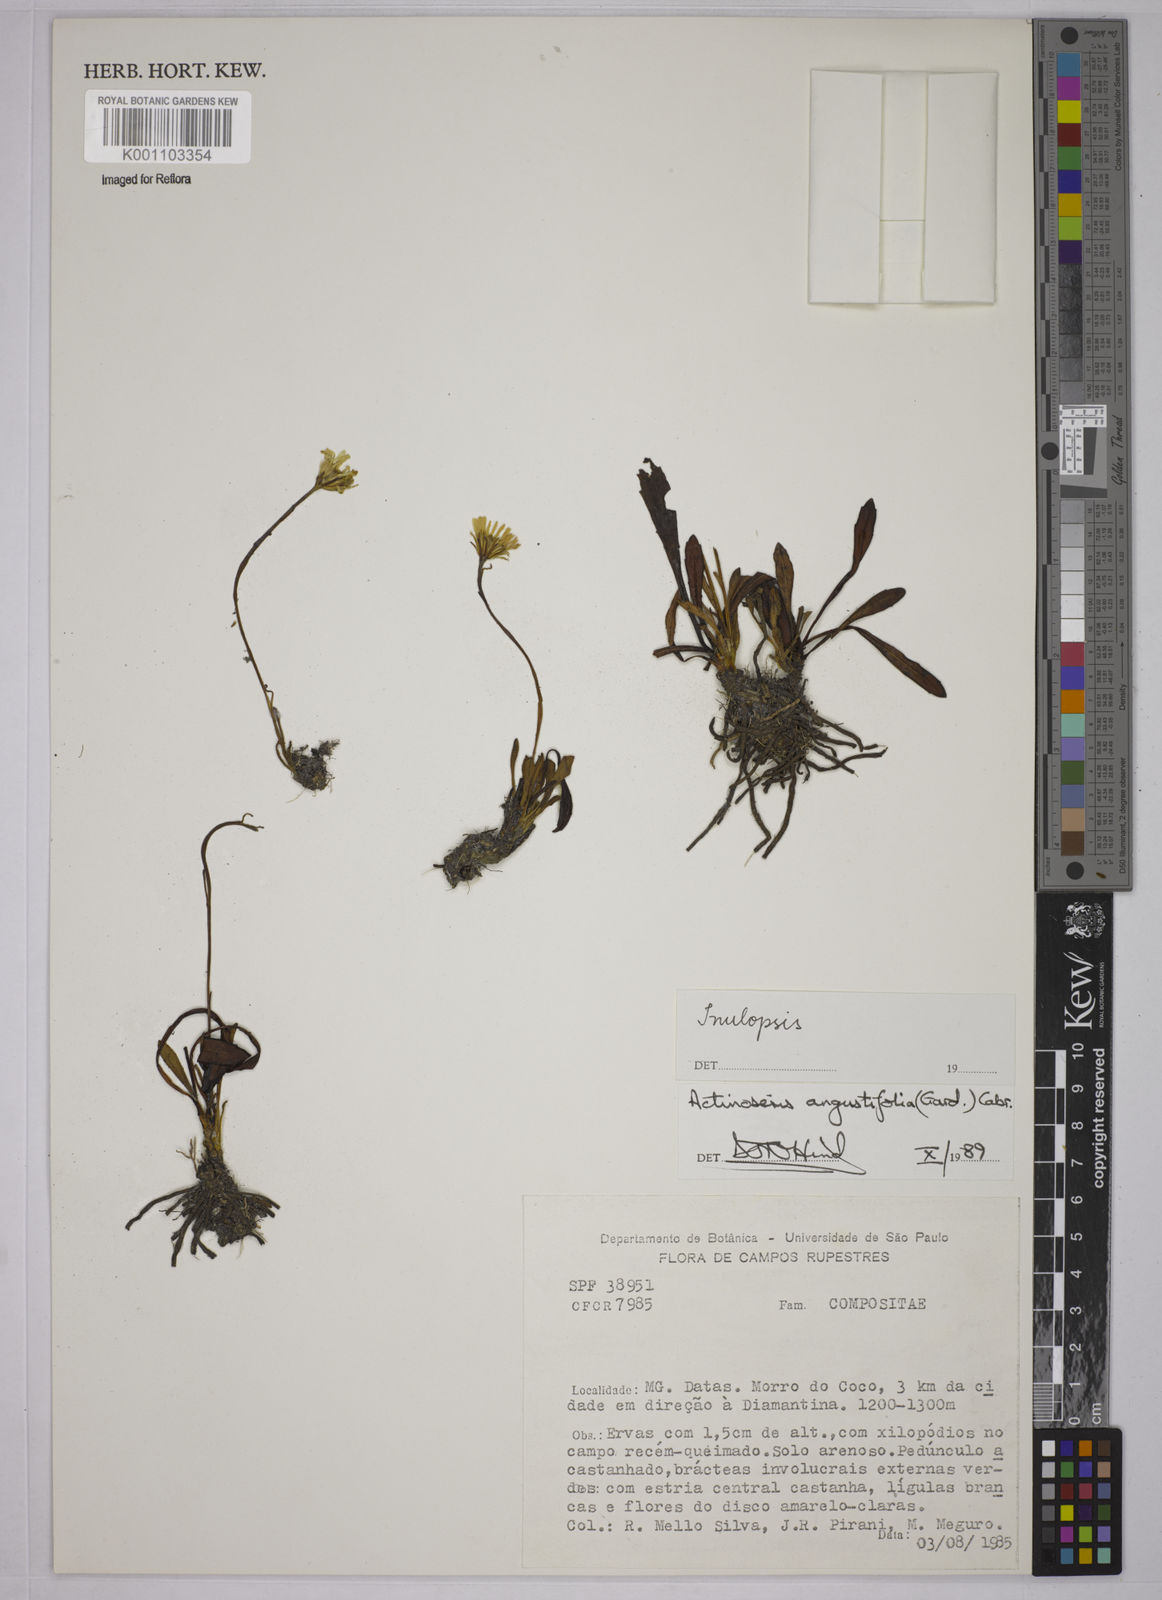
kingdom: Plantae
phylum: Tracheophyta
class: Magnoliopsida
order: Asterales
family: Asteraceae
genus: Inulopsis
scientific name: Inulopsis scaposa
